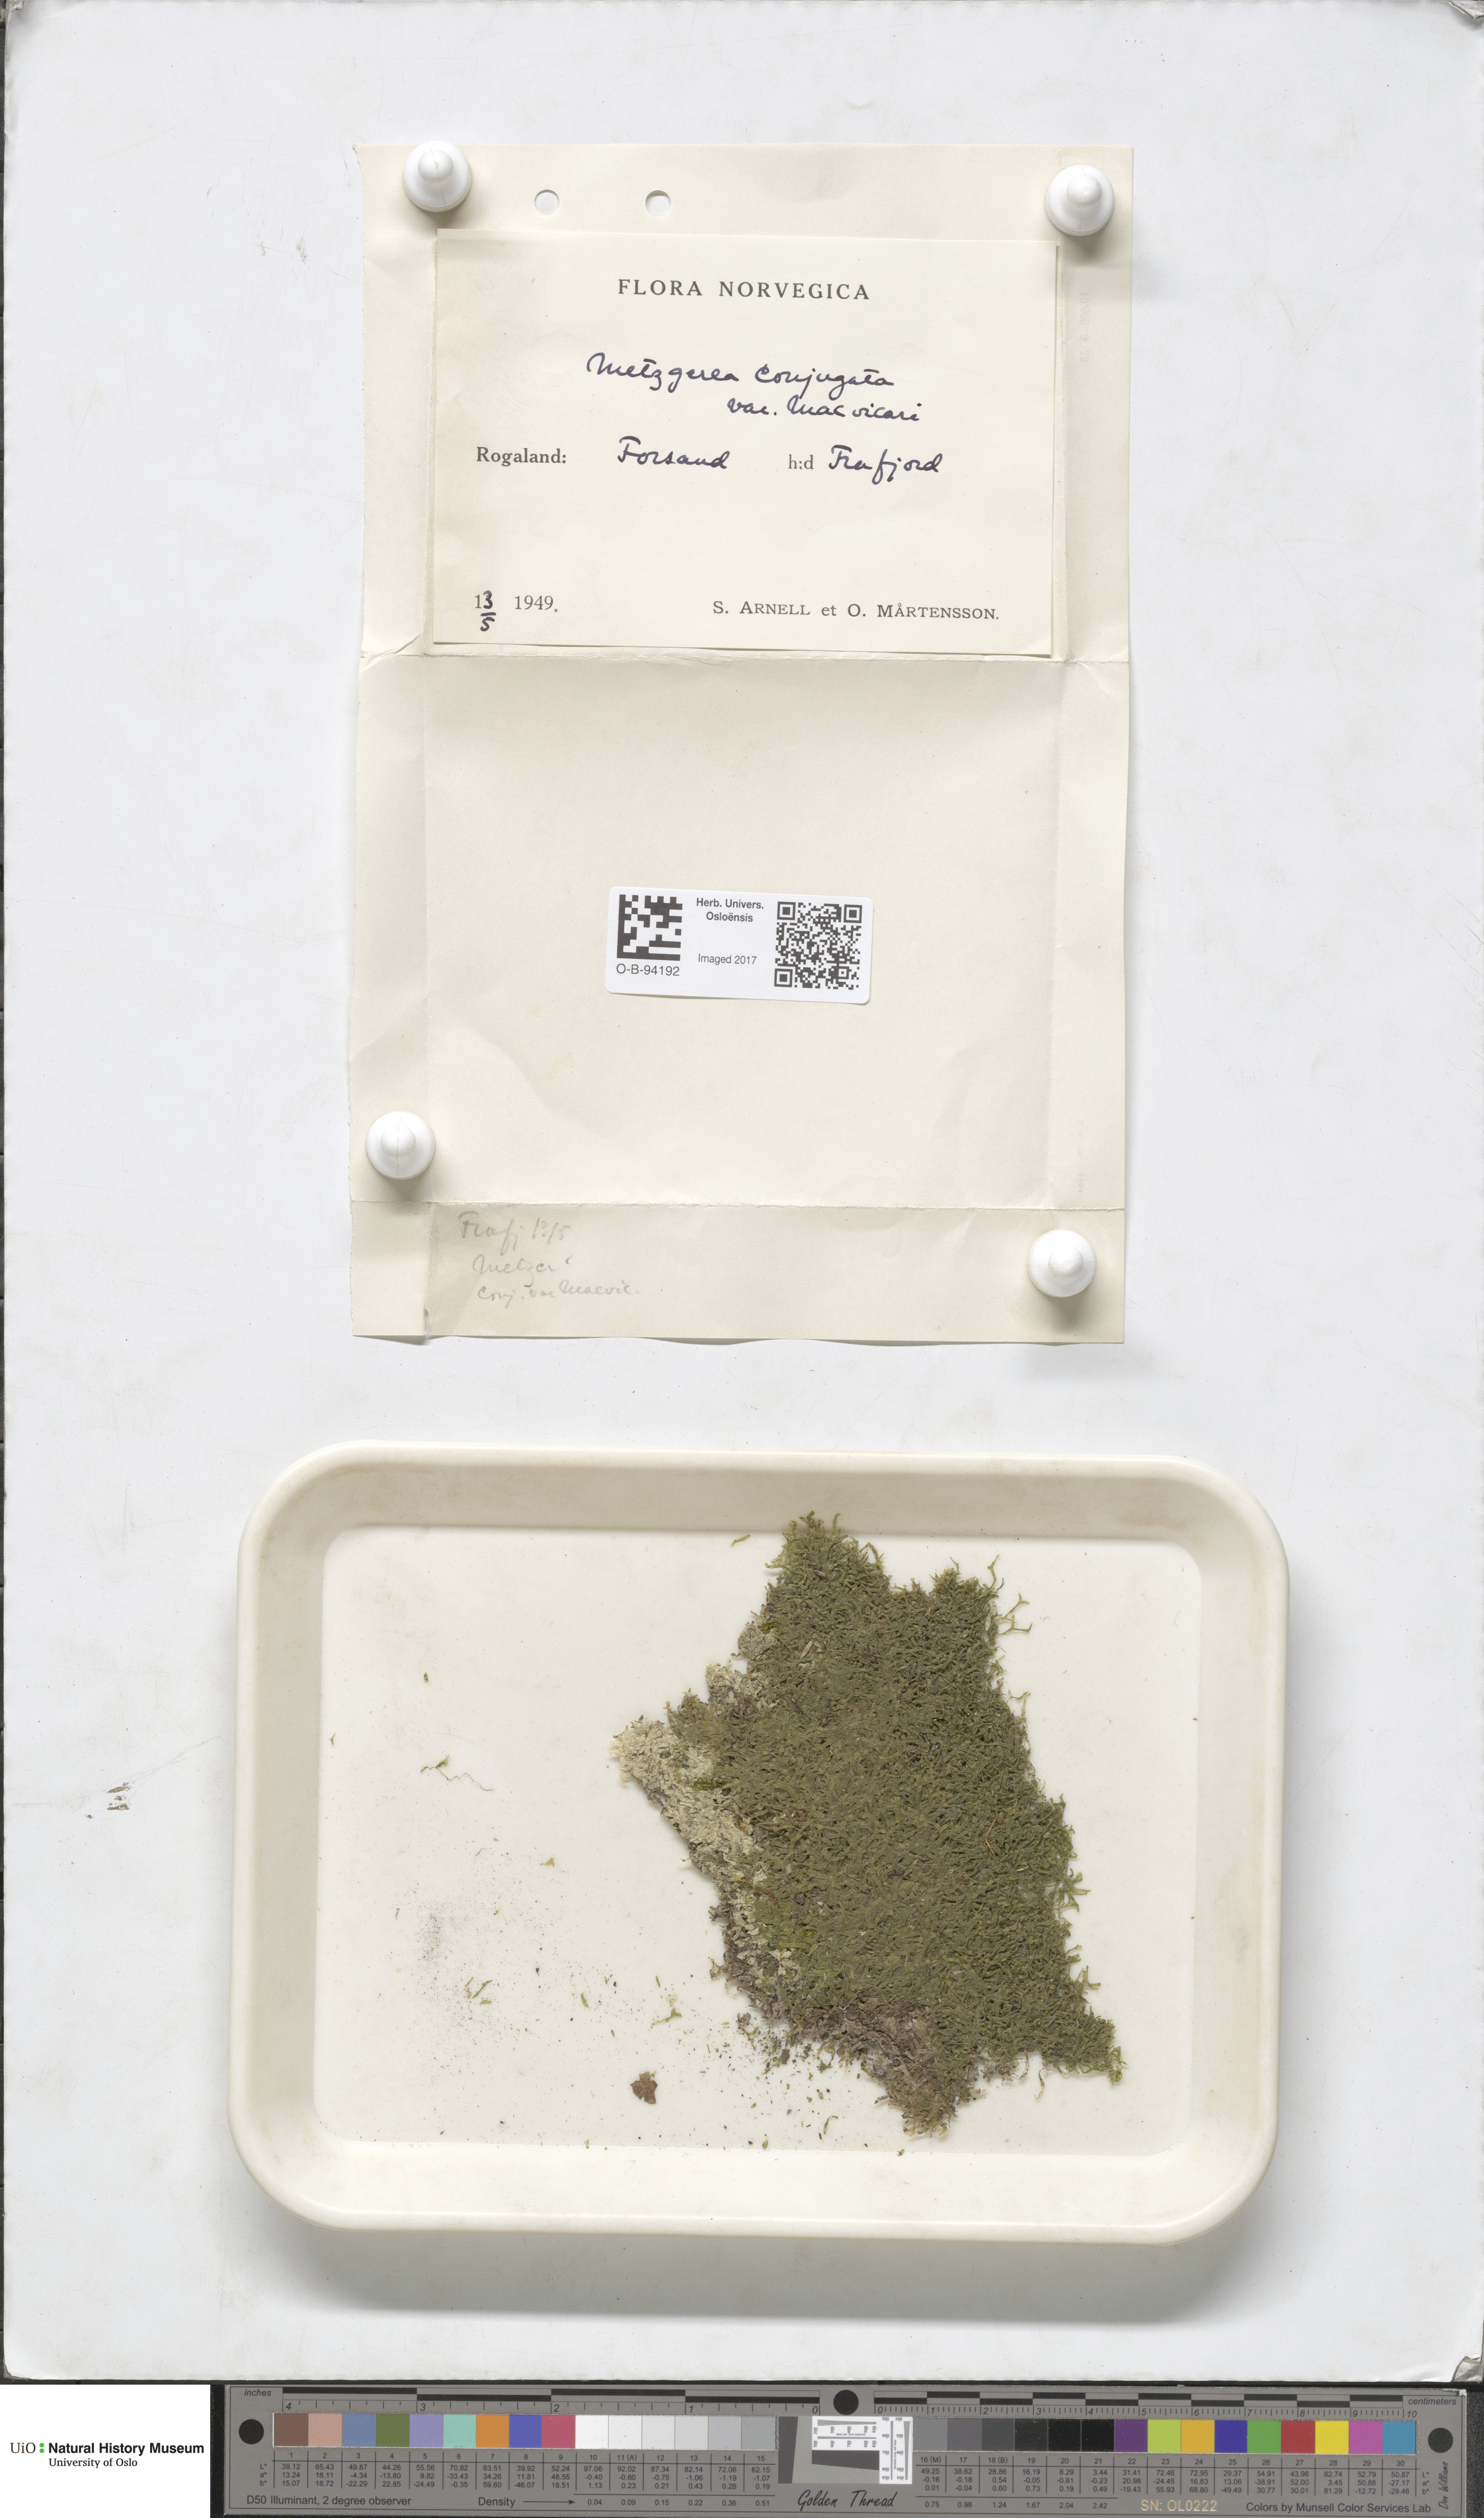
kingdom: Plantae
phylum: Marchantiophyta
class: Jungermanniopsida
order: Metzgeriales
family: Metzgeriaceae
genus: Metzgeria
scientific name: Metzgeria conjugata
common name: Rock veilwort
